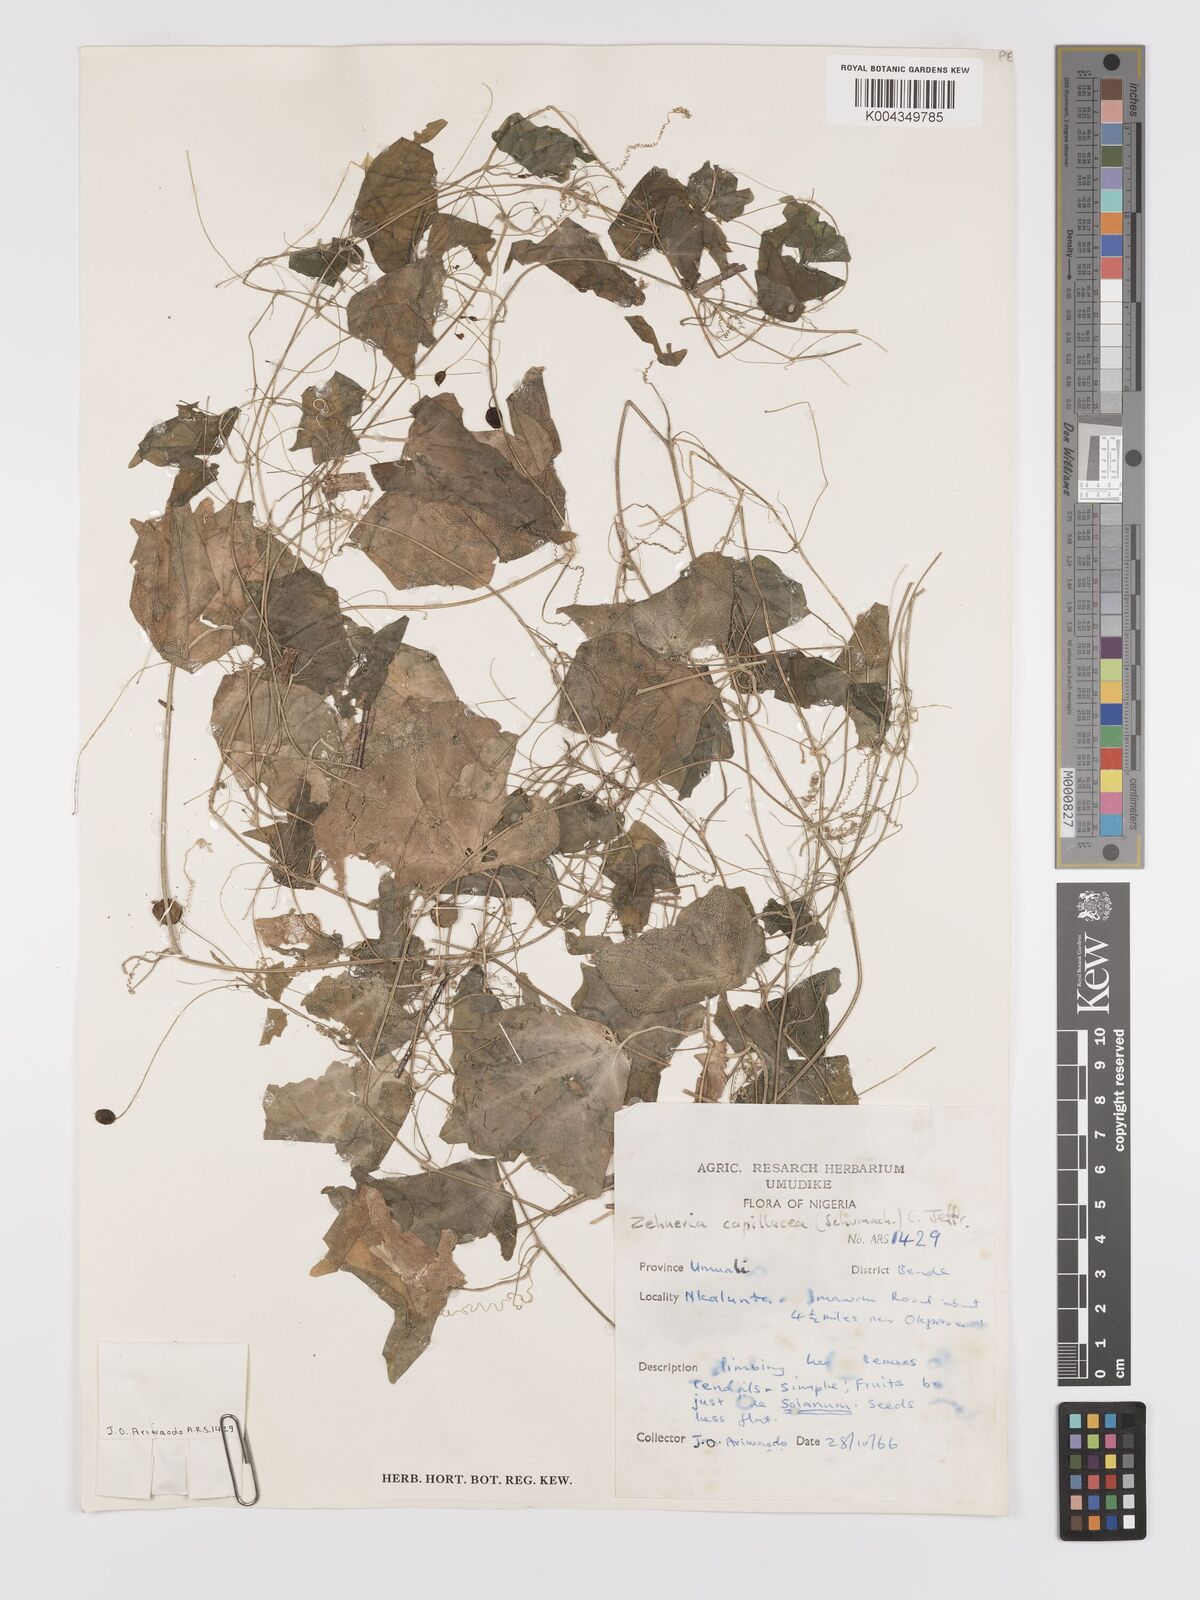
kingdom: Plantae
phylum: Tracheophyta
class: Magnoliopsida
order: Cucurbitales
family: Cucurbitaceae
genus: Zehneria
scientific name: Zehneria capillacea
